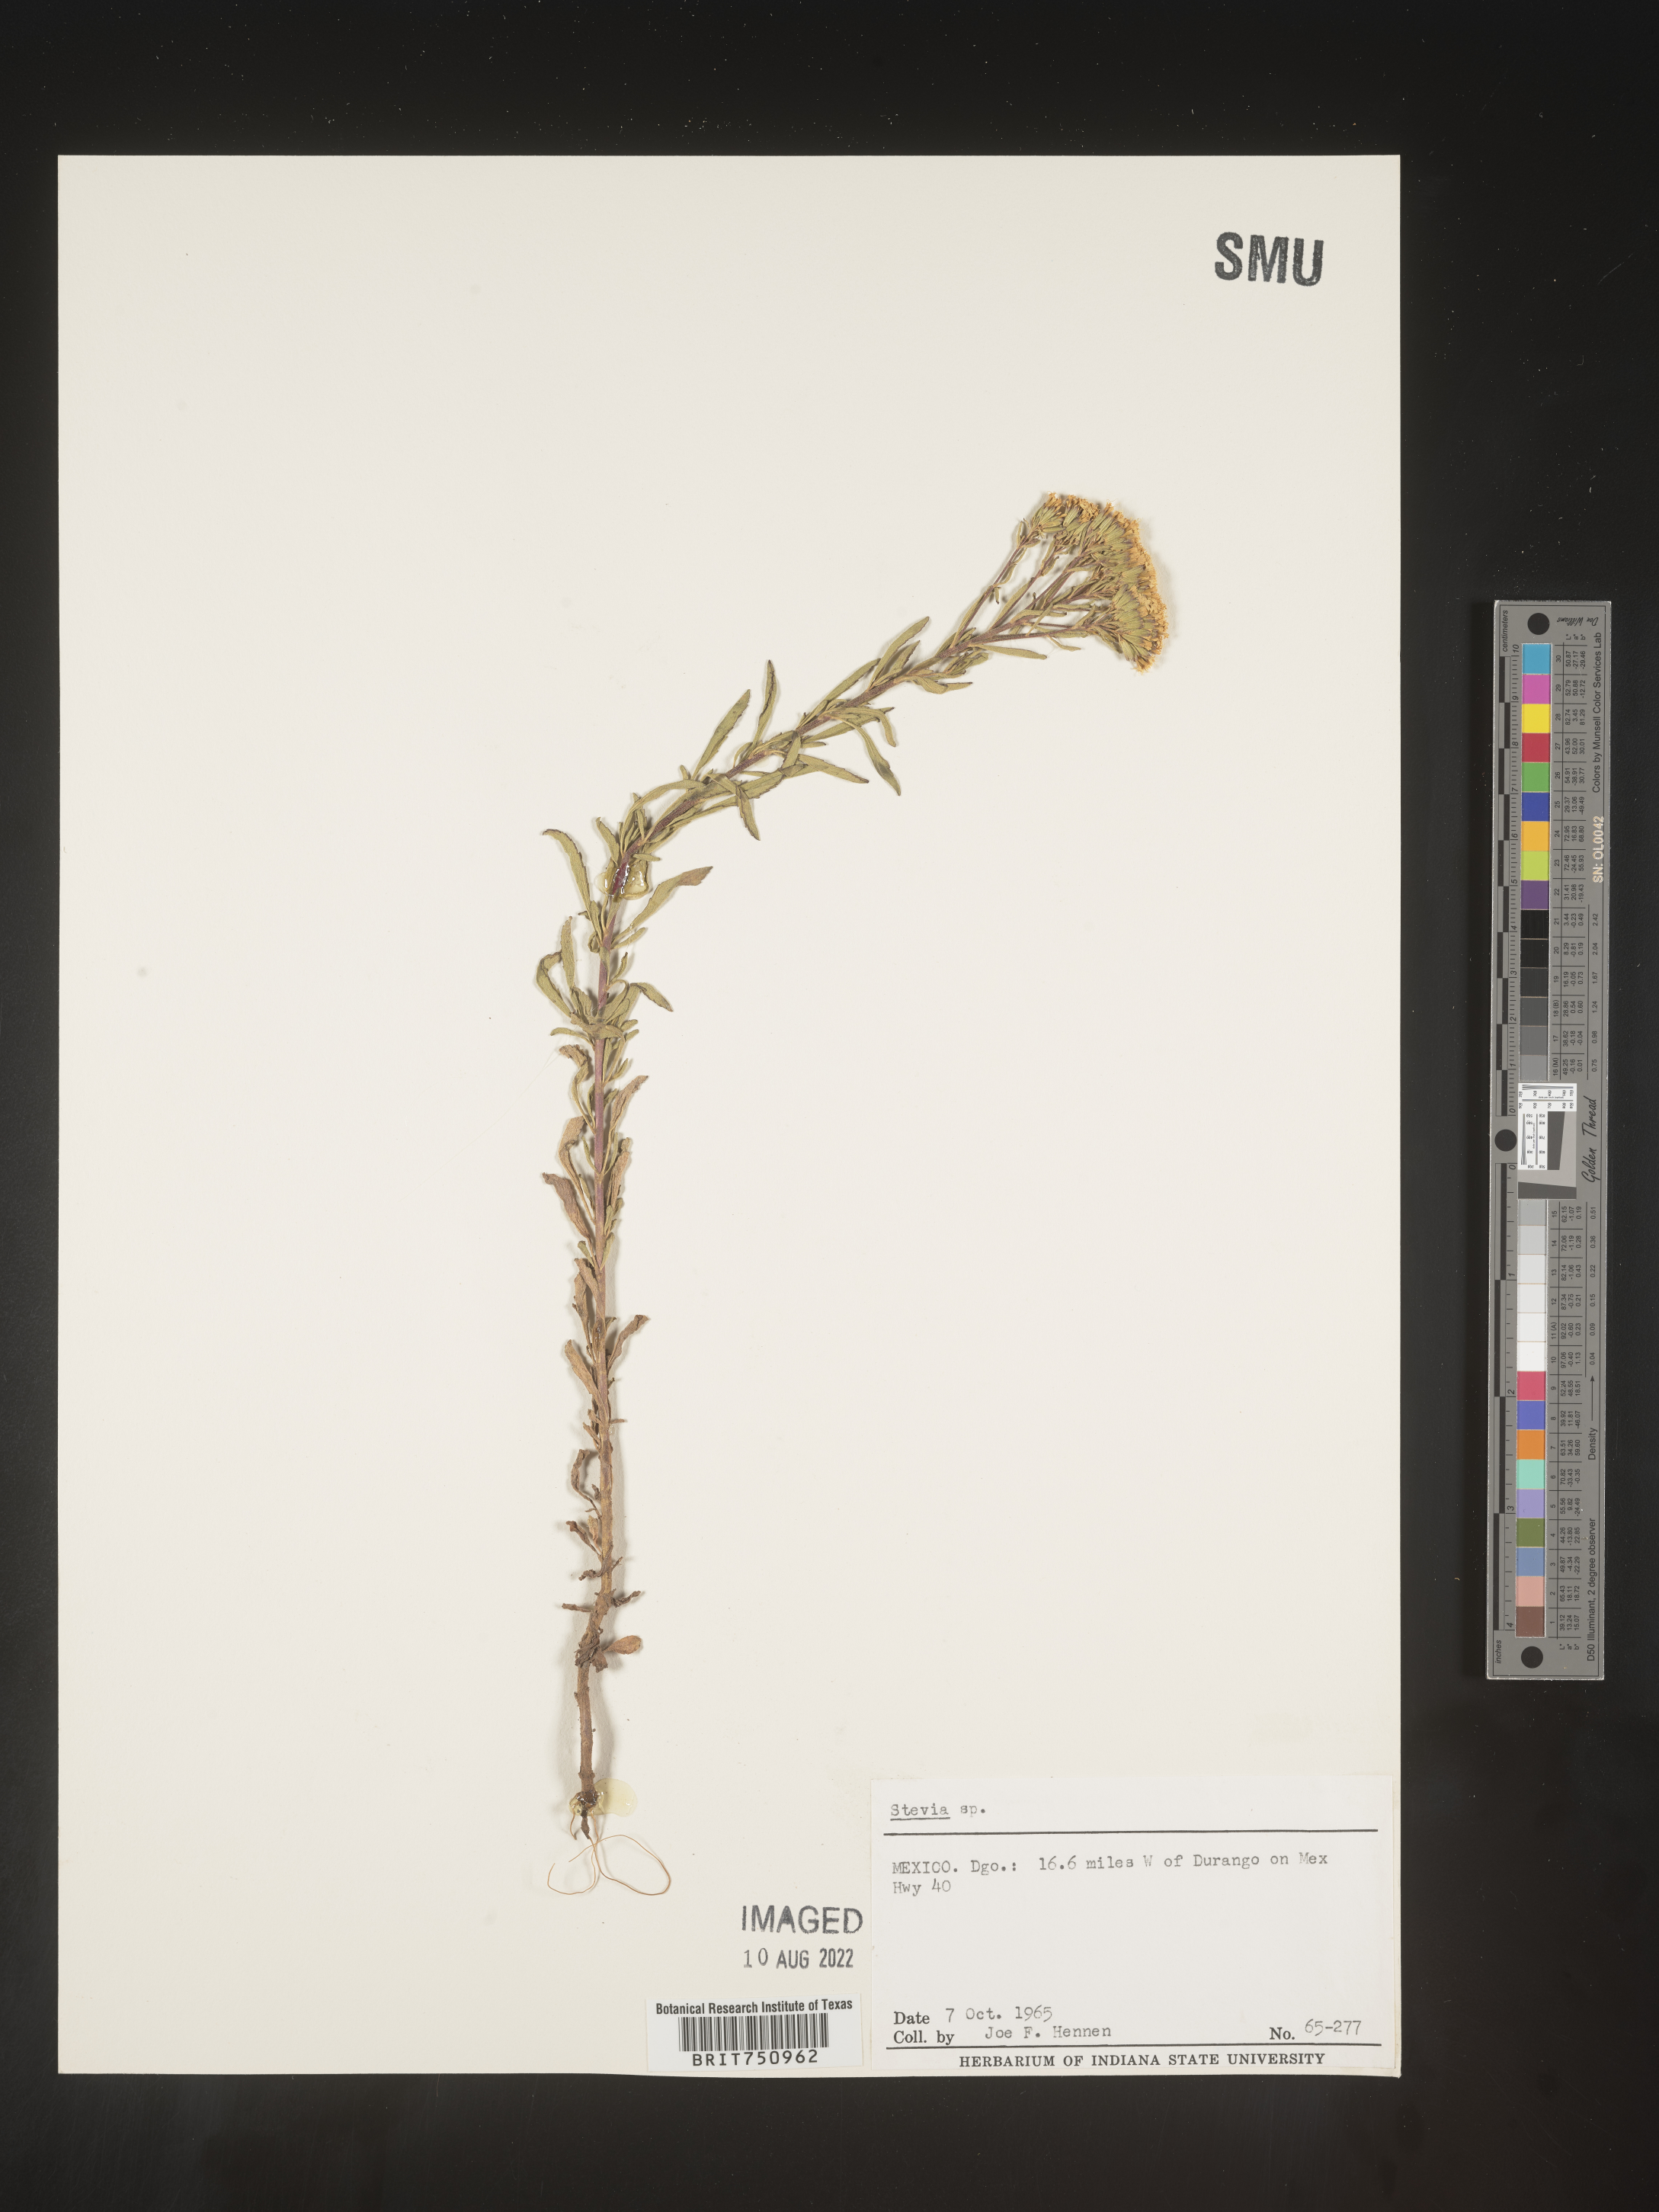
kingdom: Plantae
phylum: Tracheophyta
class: Magnoliopsida
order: Asterales
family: Asteraceae
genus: Stevia
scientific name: Stevia
